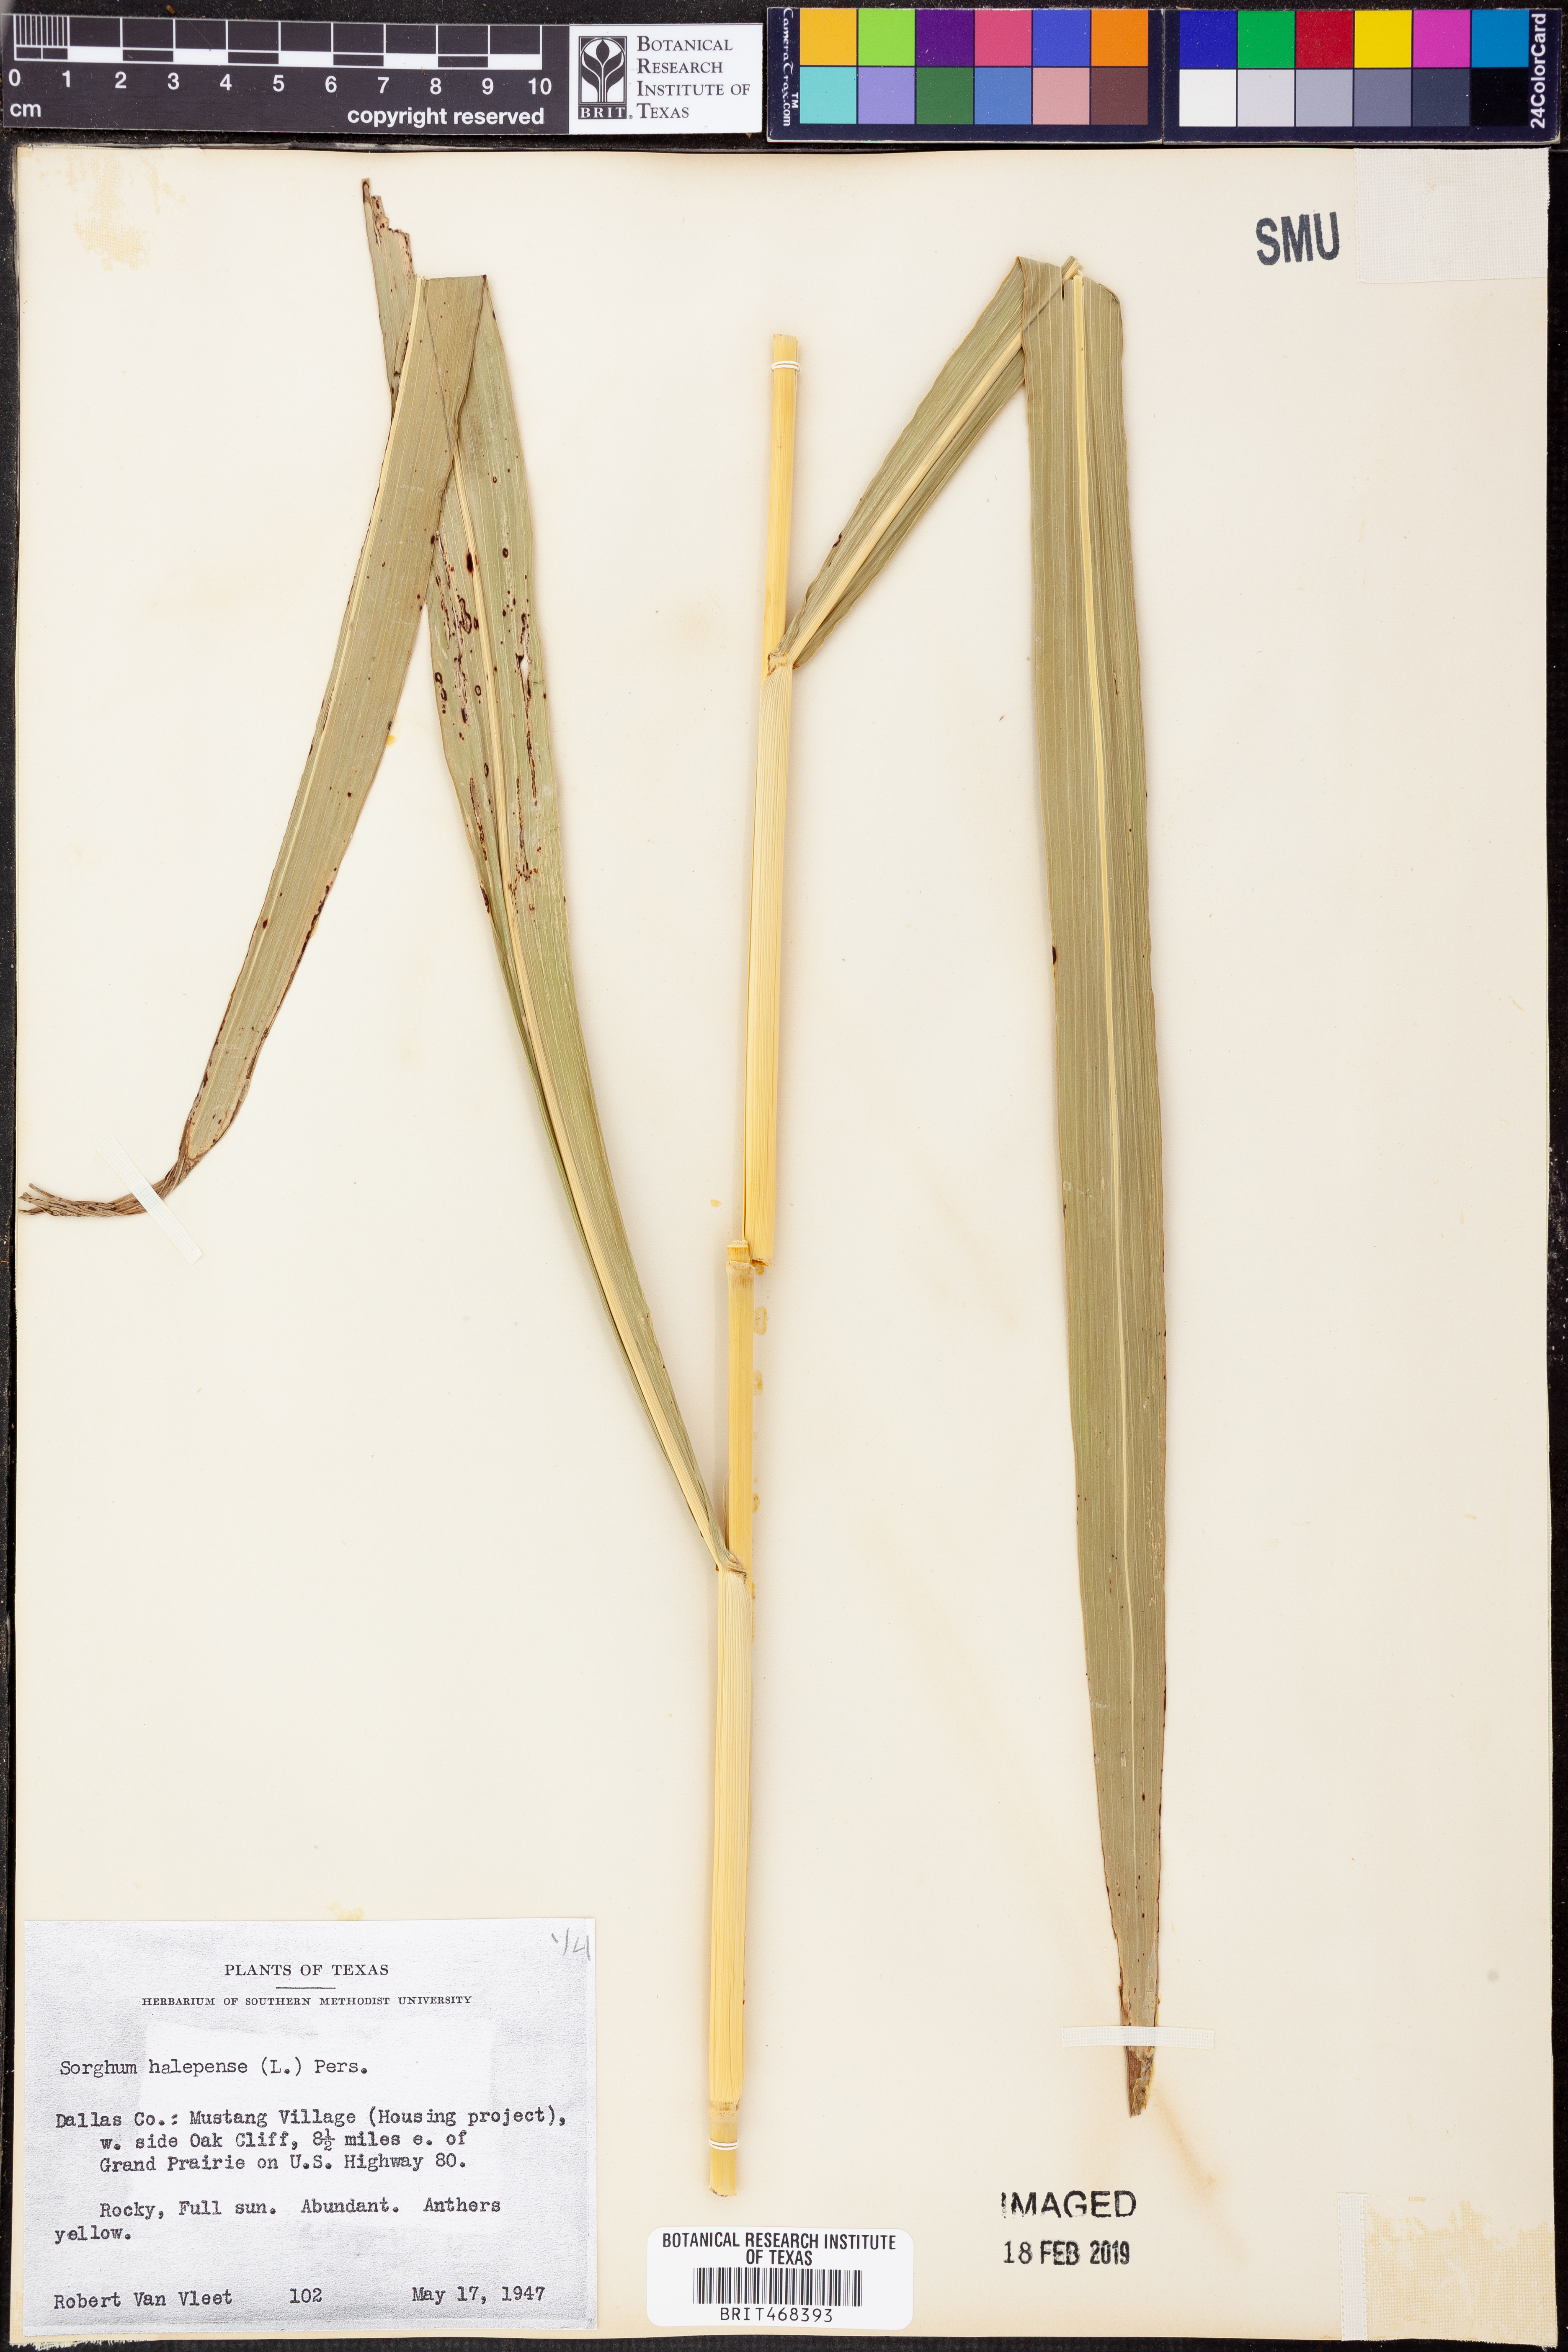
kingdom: Plantae
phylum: Tracheophyta
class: Liliopsida
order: Poales
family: Poaceae
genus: Sorghum
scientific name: Sorghum halepense
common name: Johnson-grass
